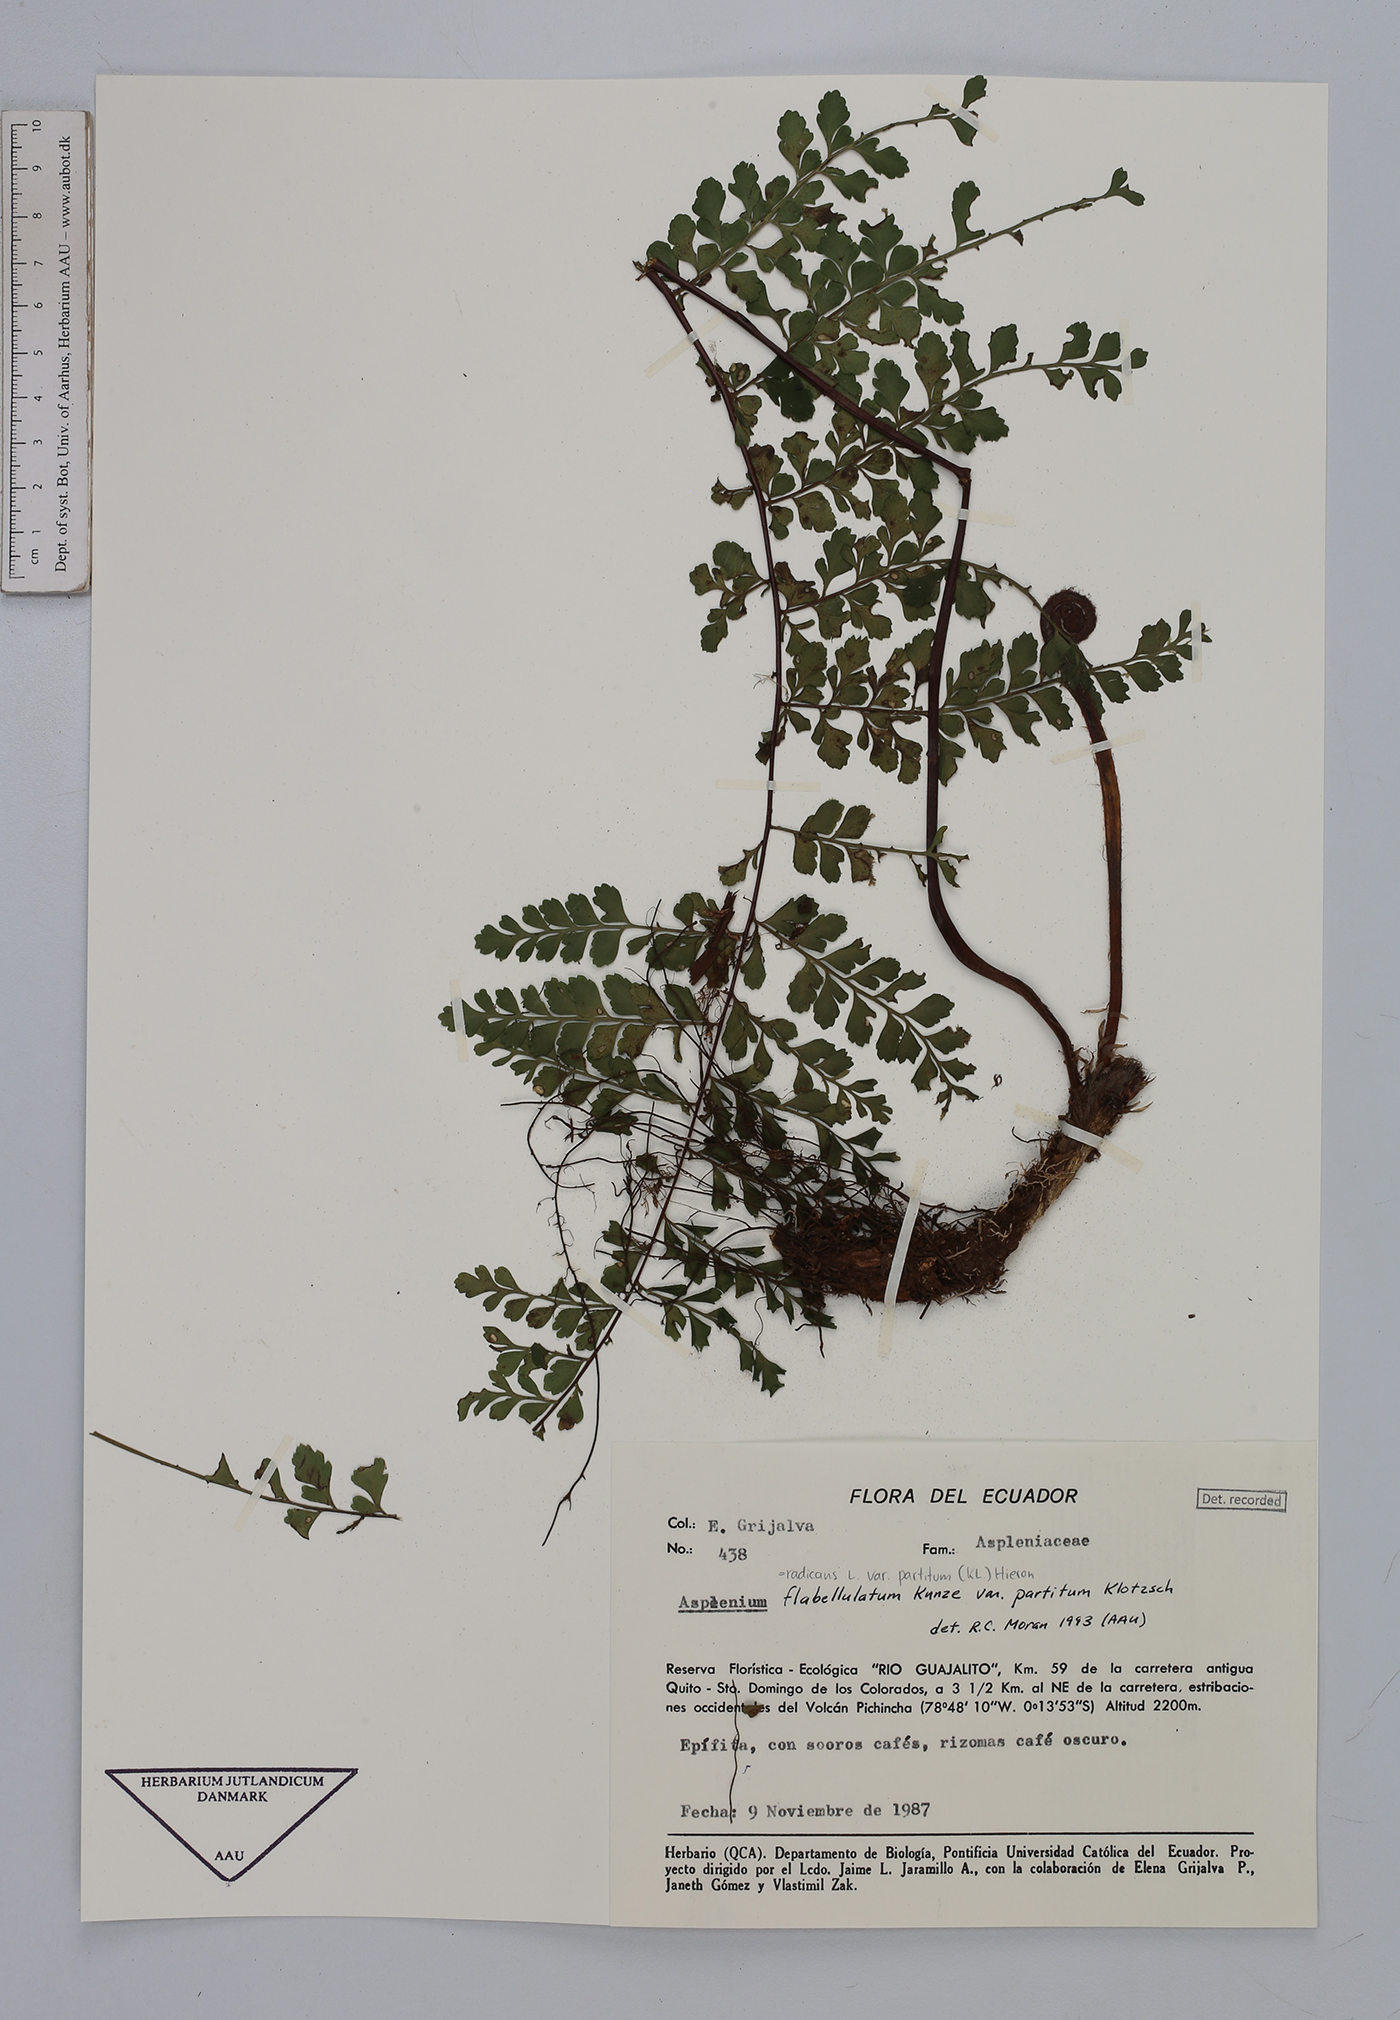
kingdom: Plantae
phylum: Tracheophyta
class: Polypodiopsida
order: Polypodiales
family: Aspleniaceae
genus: Asplenium
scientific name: Asplenium flabellulatum
